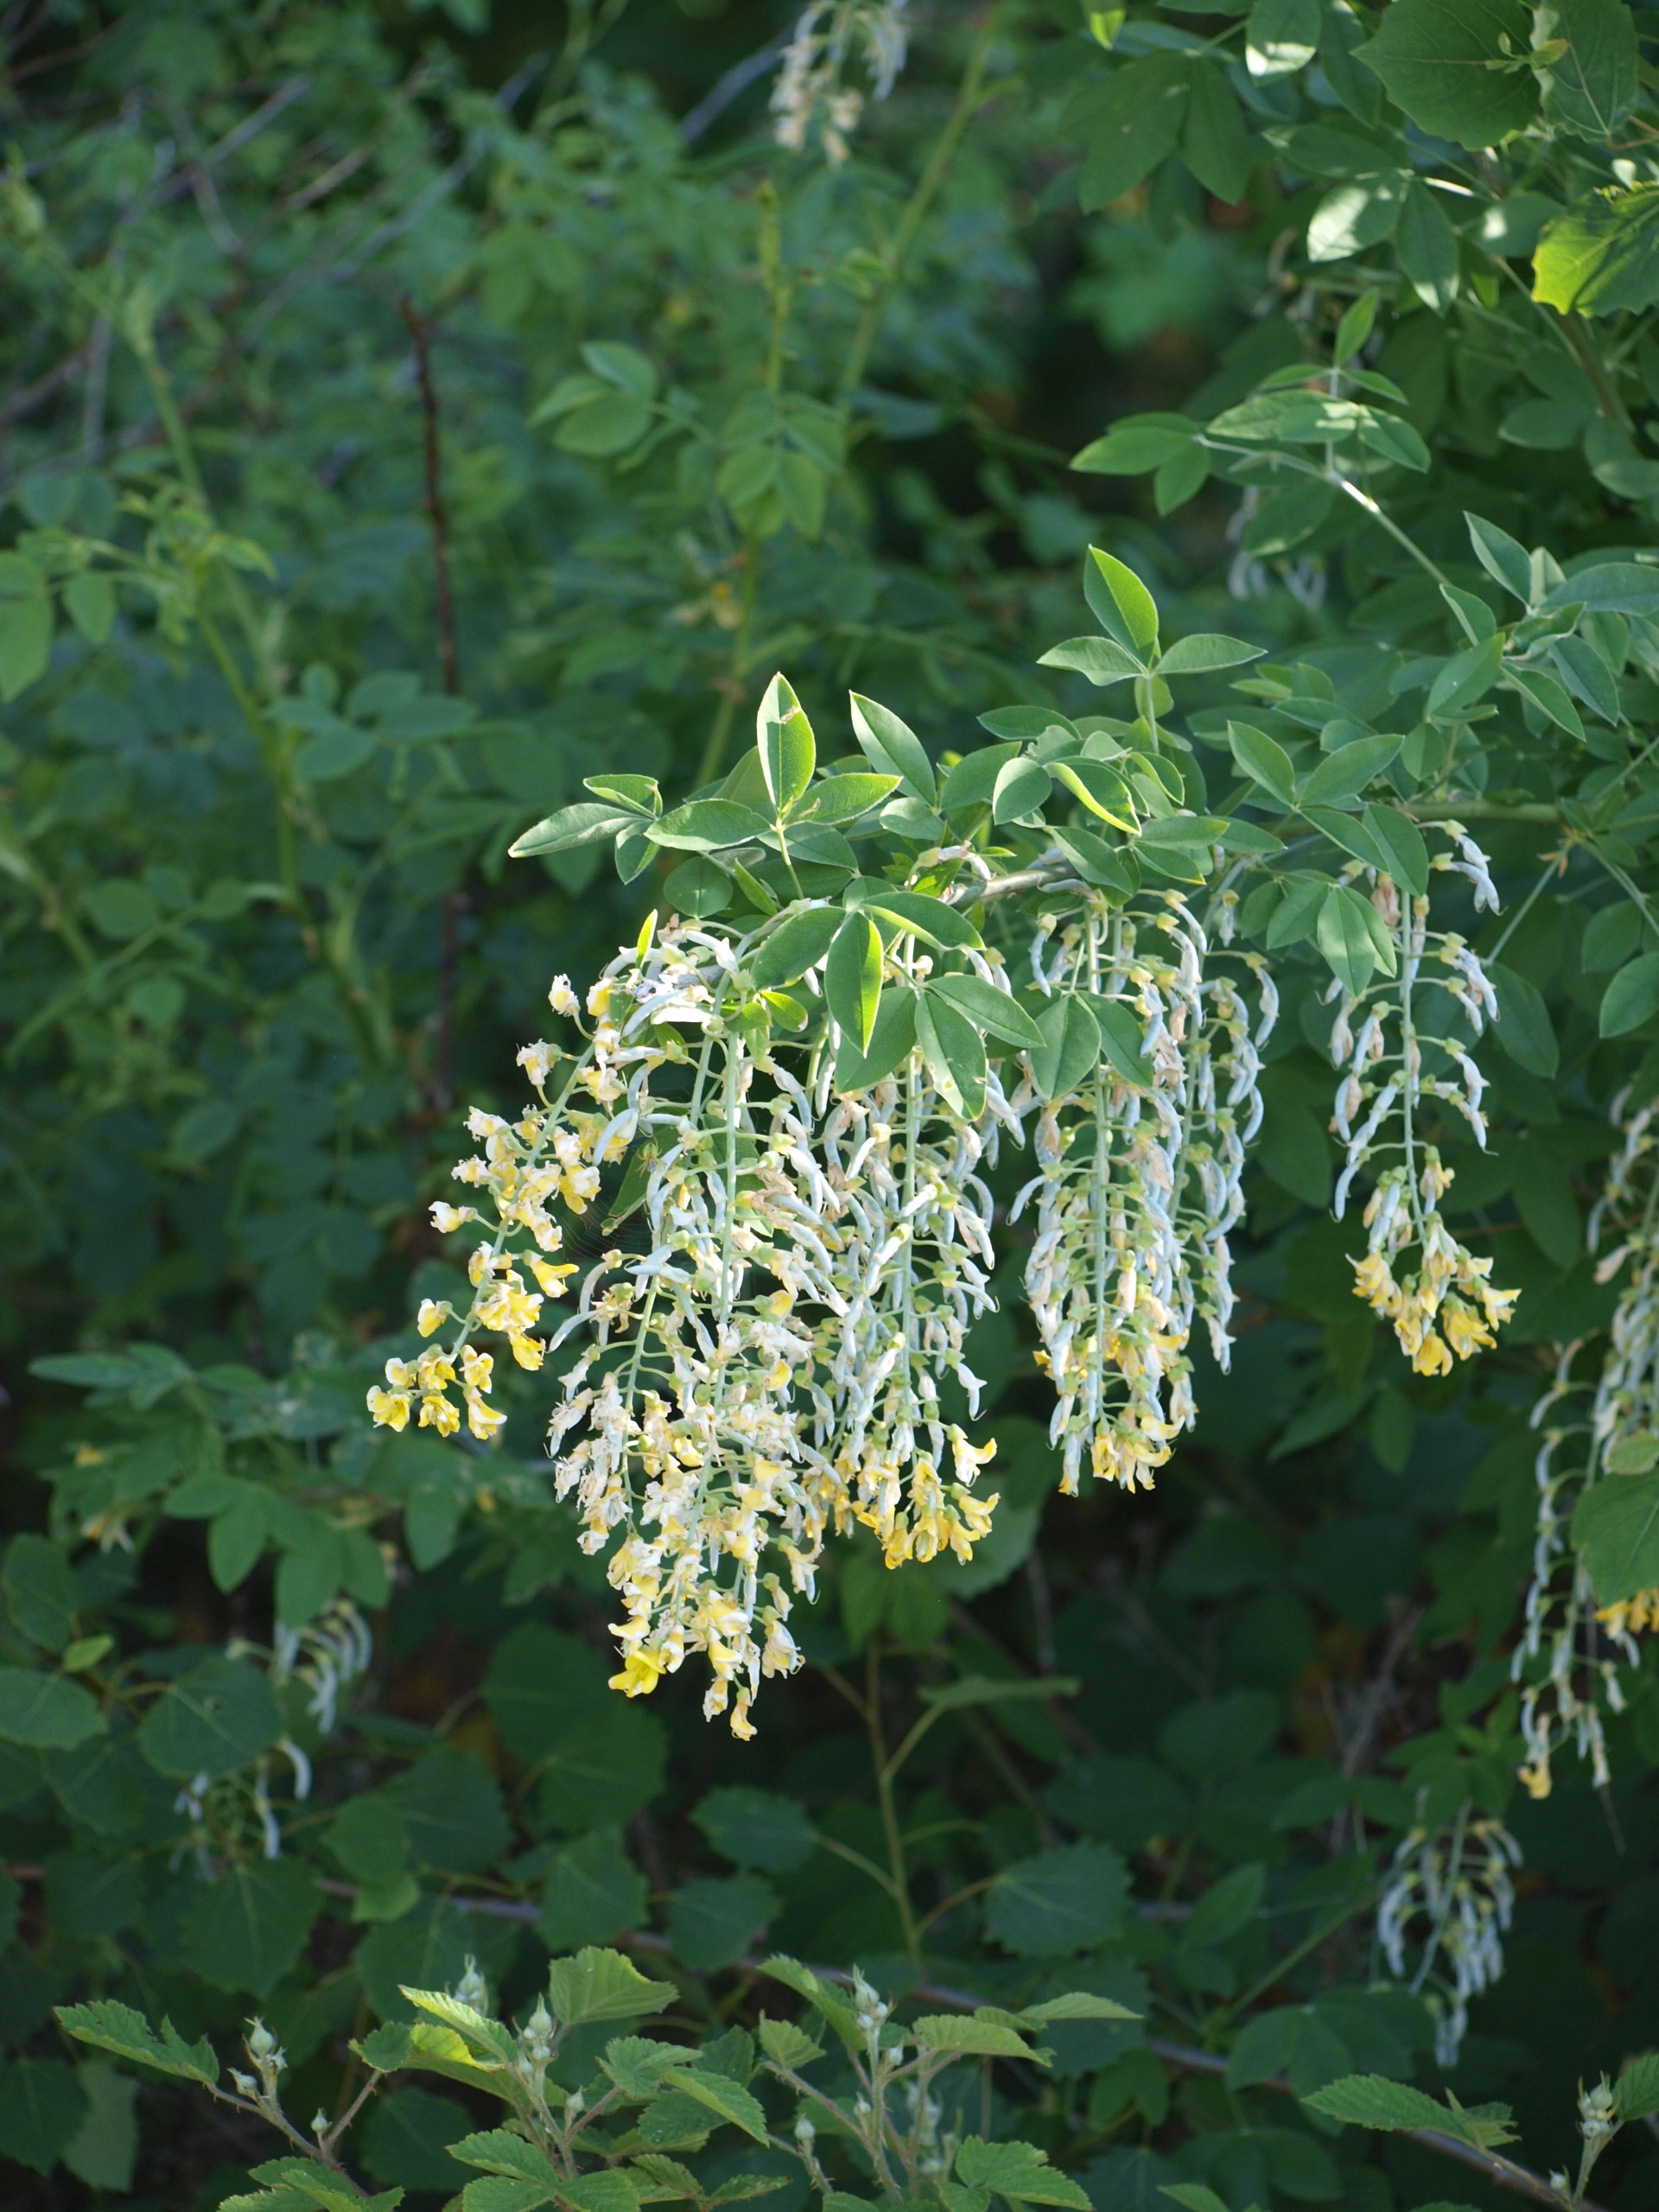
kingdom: Plantae
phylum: Tracheophyta
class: Magnoliopsida
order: Fabales
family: Fabaceae
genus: Laburnum
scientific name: Laburnum anagyroides
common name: Guldregn
